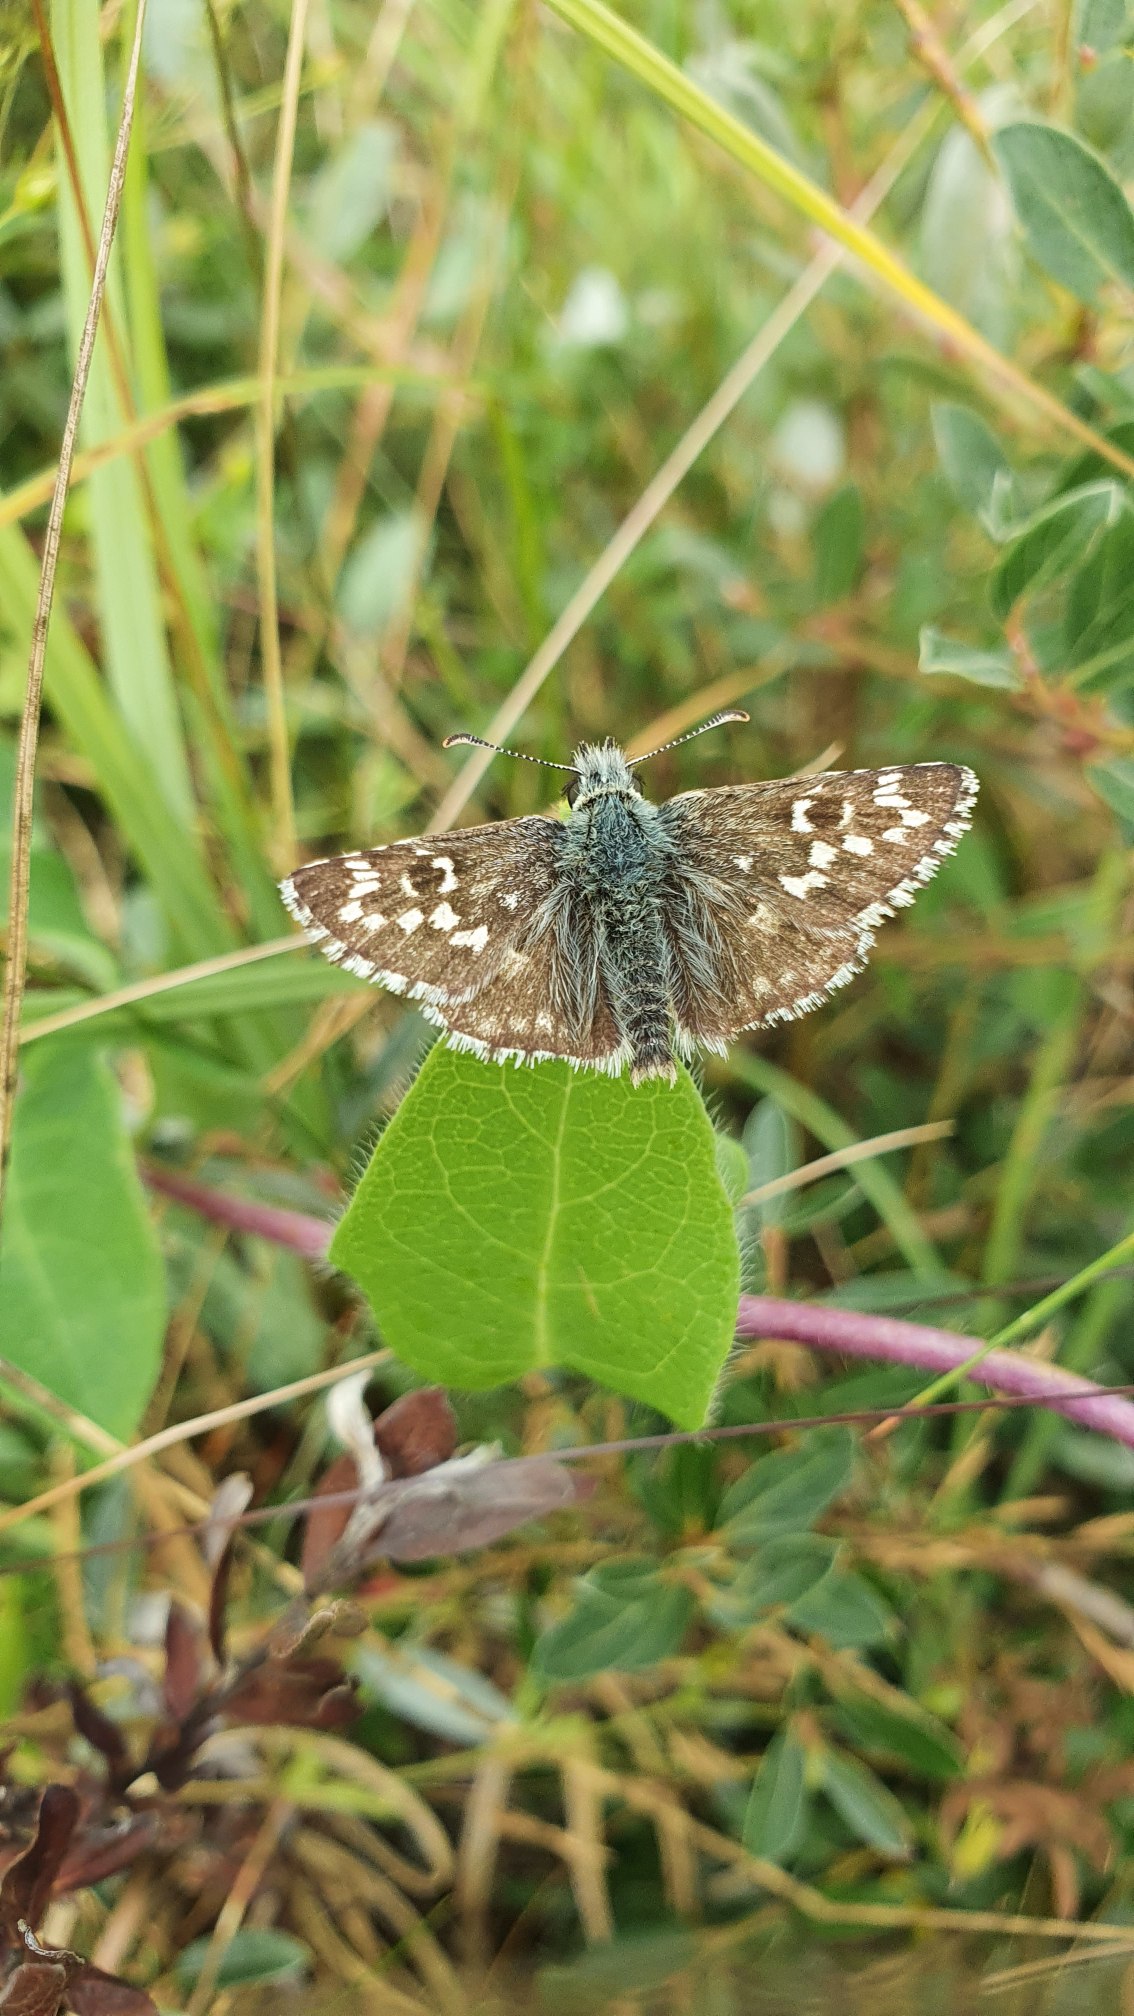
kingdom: Animalia
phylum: Arthropoda
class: Insecta
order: Lepidoptera
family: Hesperiidae
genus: Pyrgus
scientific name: Pyrgus armoricanus
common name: Fransk bredpande
